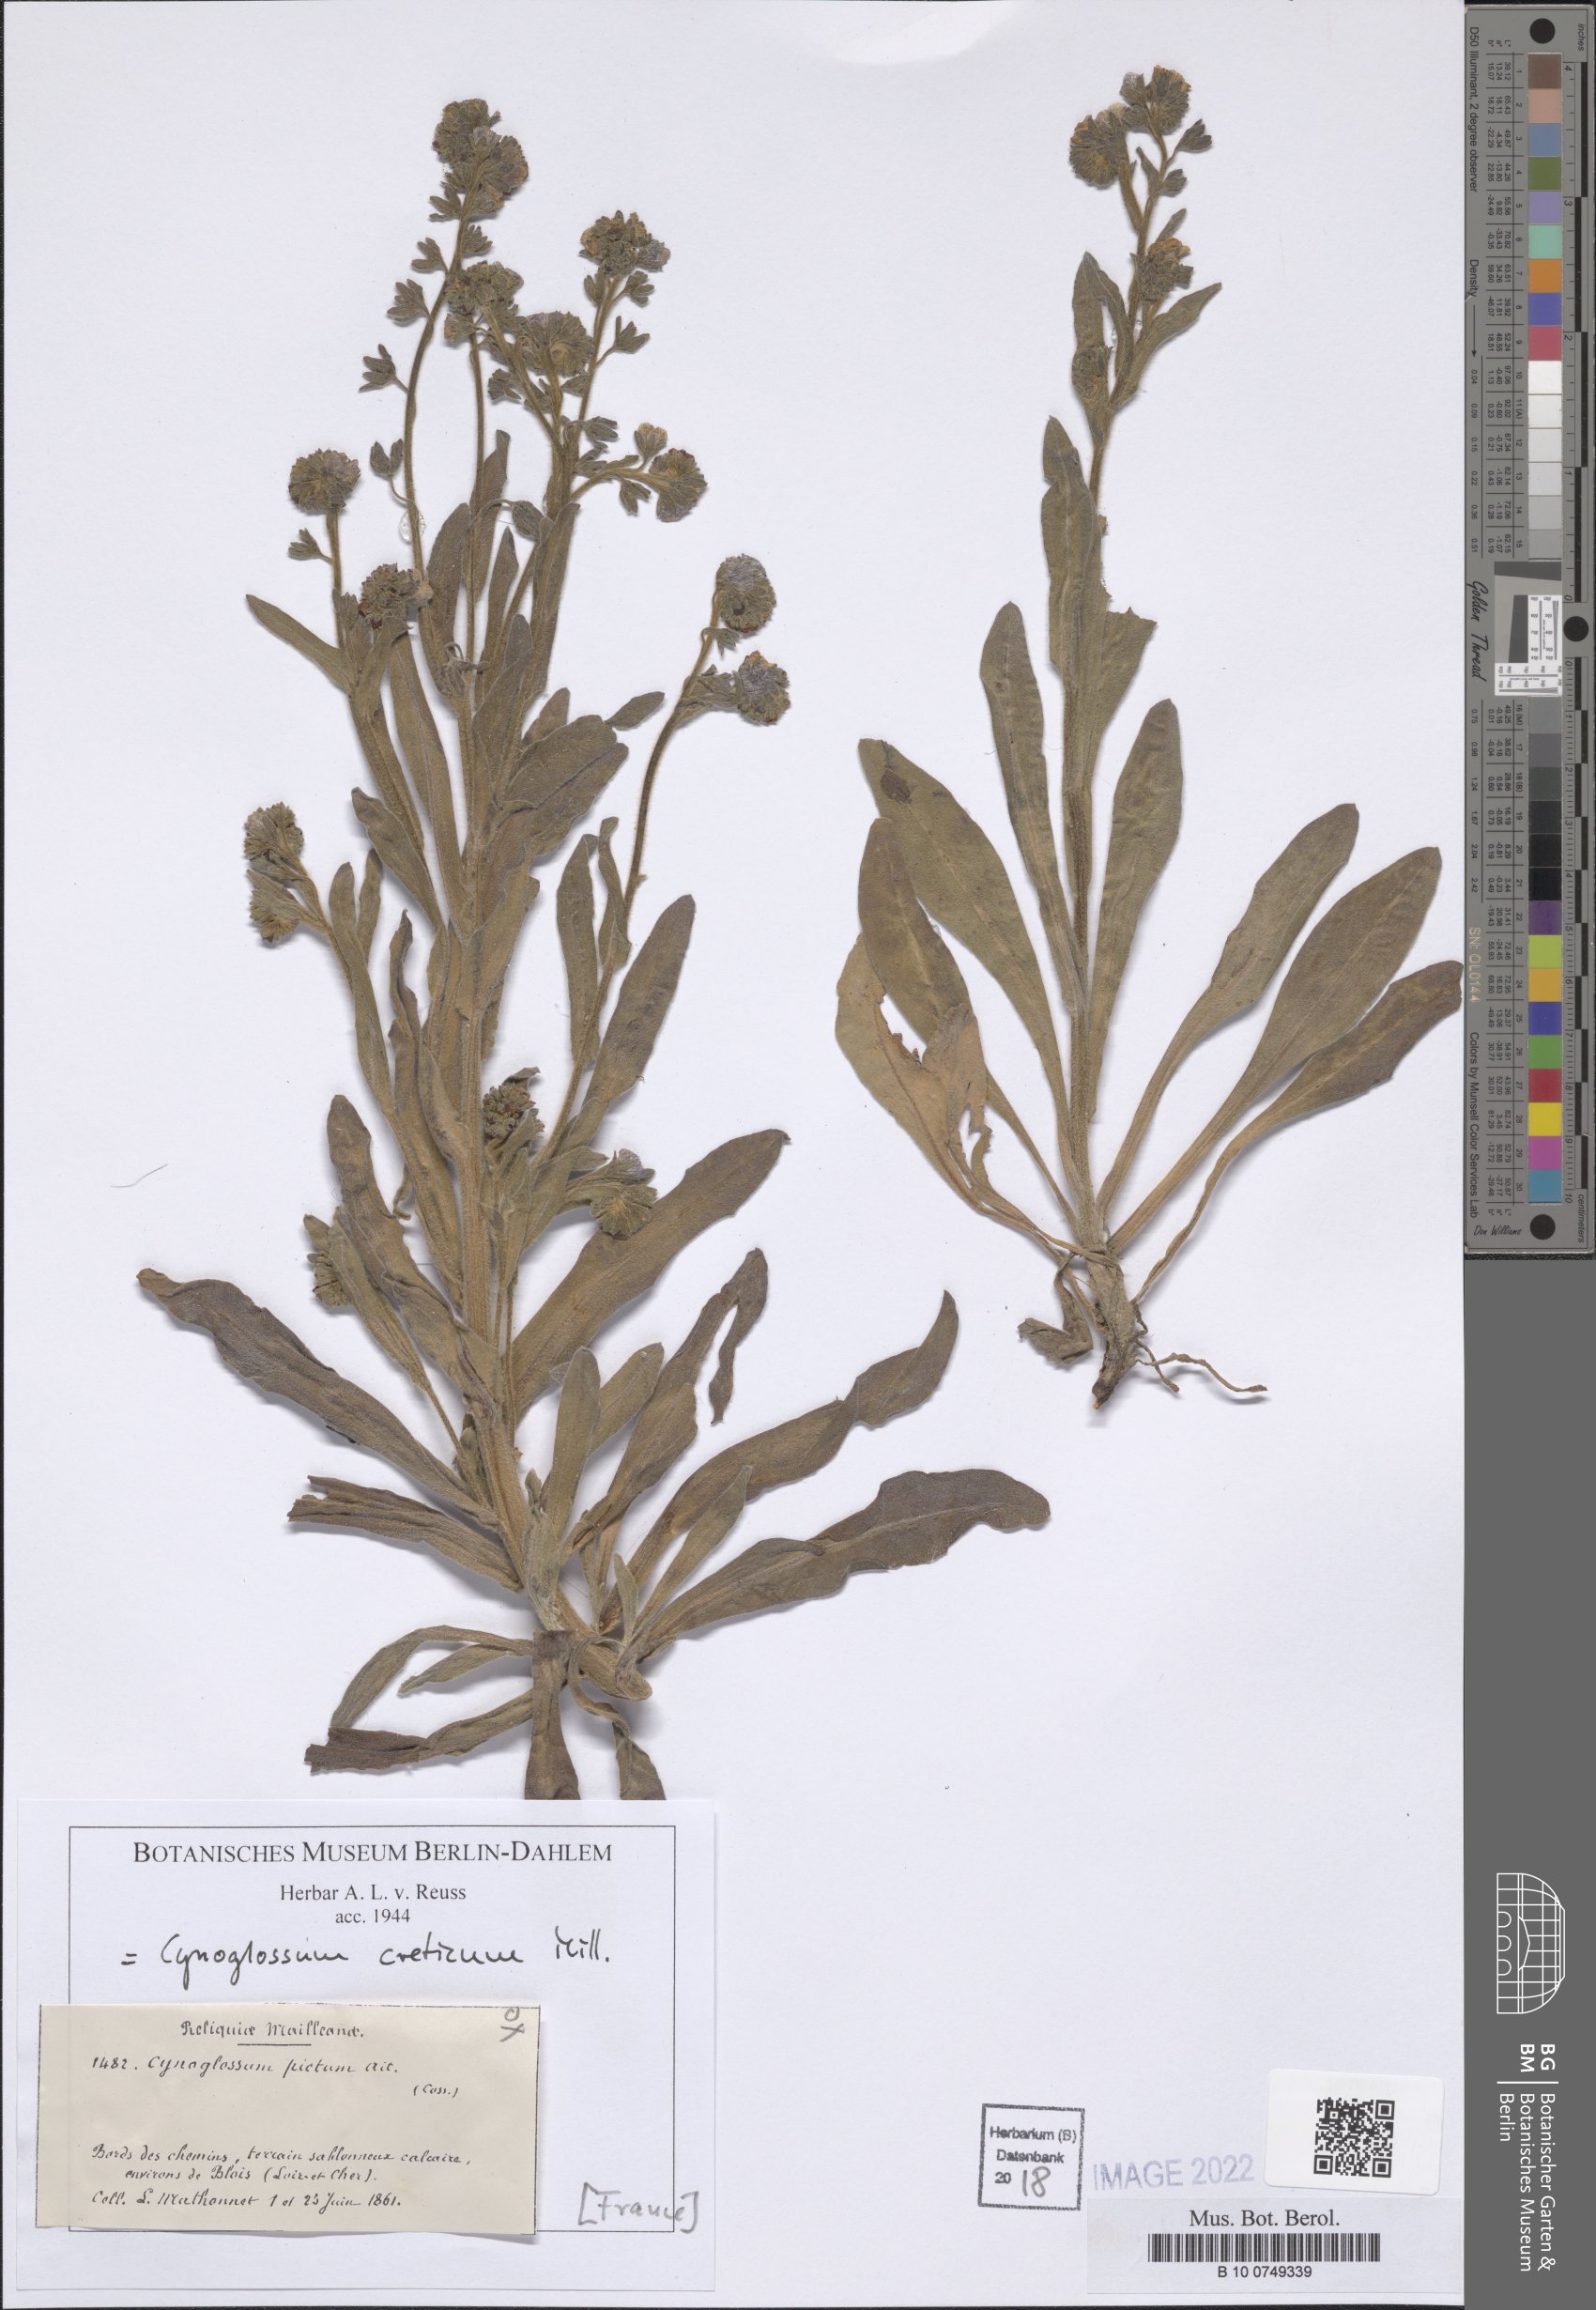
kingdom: Plantae
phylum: Tracheophyta
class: Magnoliopsida
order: Boraginales
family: Boraginaceae
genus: Cynoglossum
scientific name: Cynoglossum creticum
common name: Blue hound's tongue
